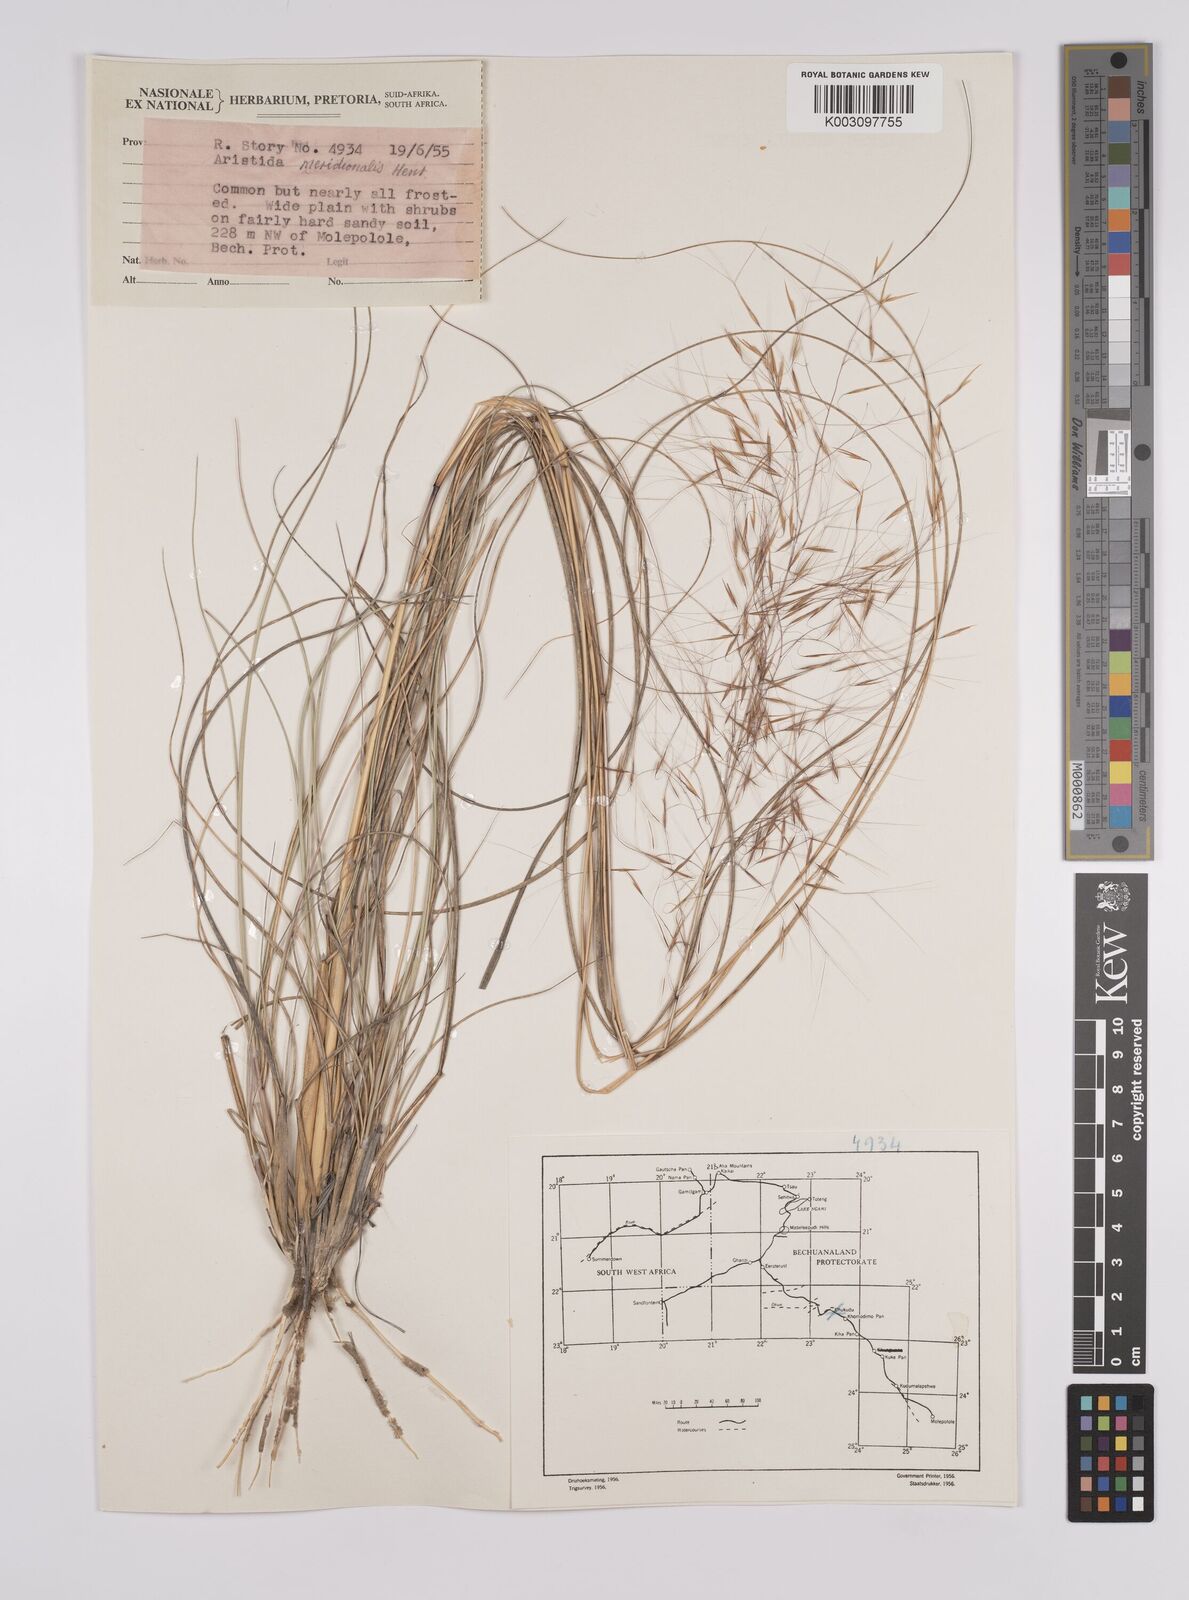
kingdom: Plantae
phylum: Tracheophyta
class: Liliopsida
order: Poales
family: Poaceae
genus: Aristida
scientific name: Aristida meridionalis
